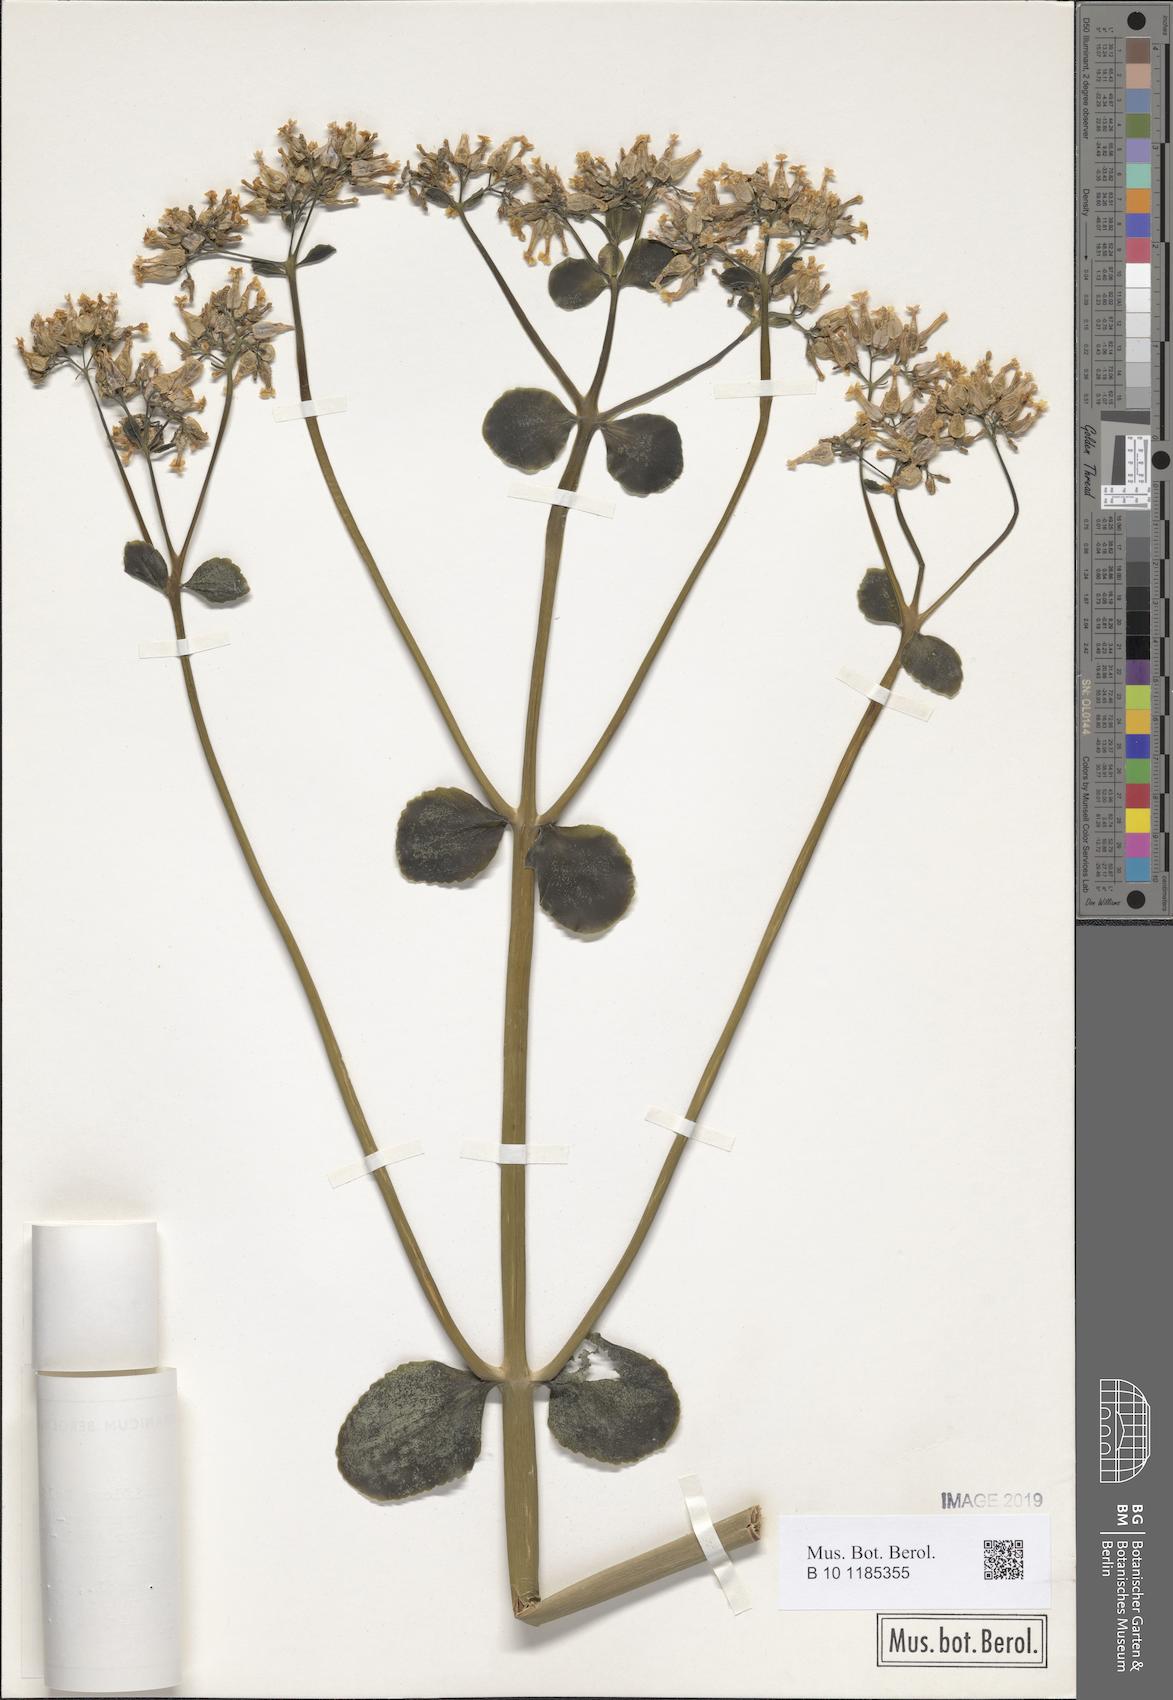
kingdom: Plantae
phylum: Tracheophyta
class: Magnoliopsida
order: Saxifragales
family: Crassulaceae
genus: Kalanchoe
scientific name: Kalanchoe densiflora
